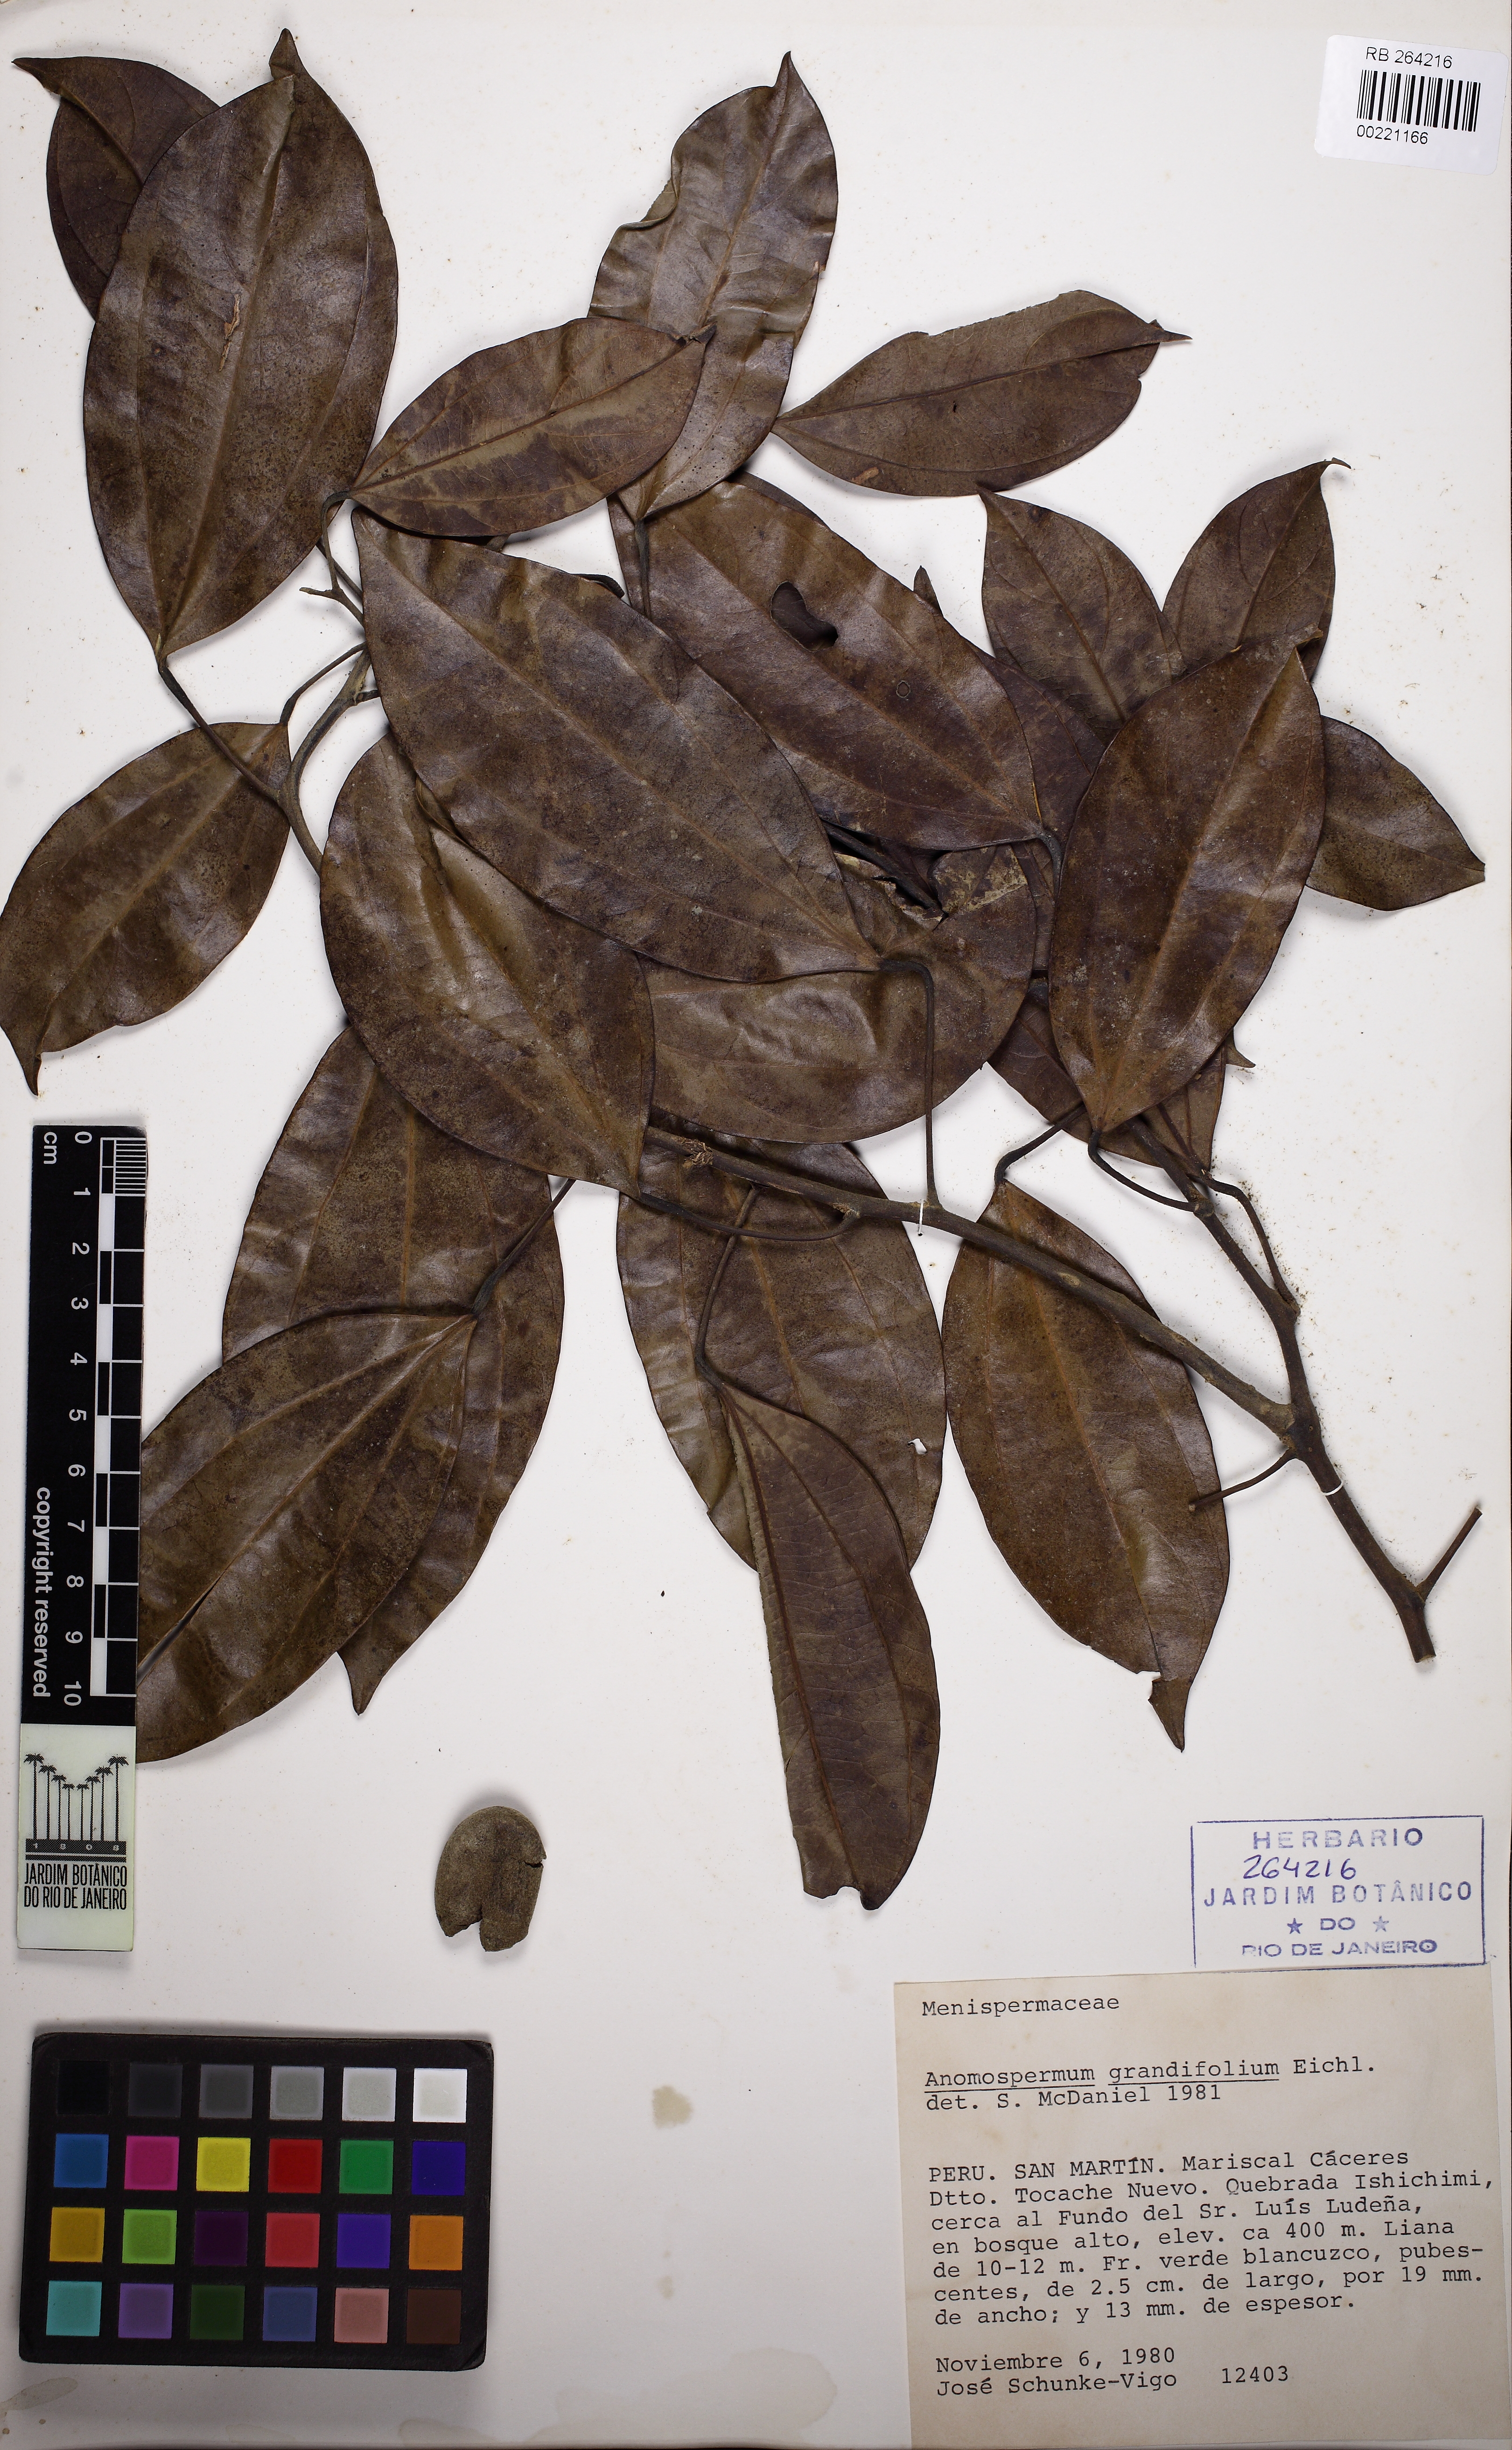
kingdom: Plantae
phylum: Tracheophyta
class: Magnoliopsida
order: Ranunculales
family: Menispermaceae
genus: Abuta
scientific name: Abuta panurensis
